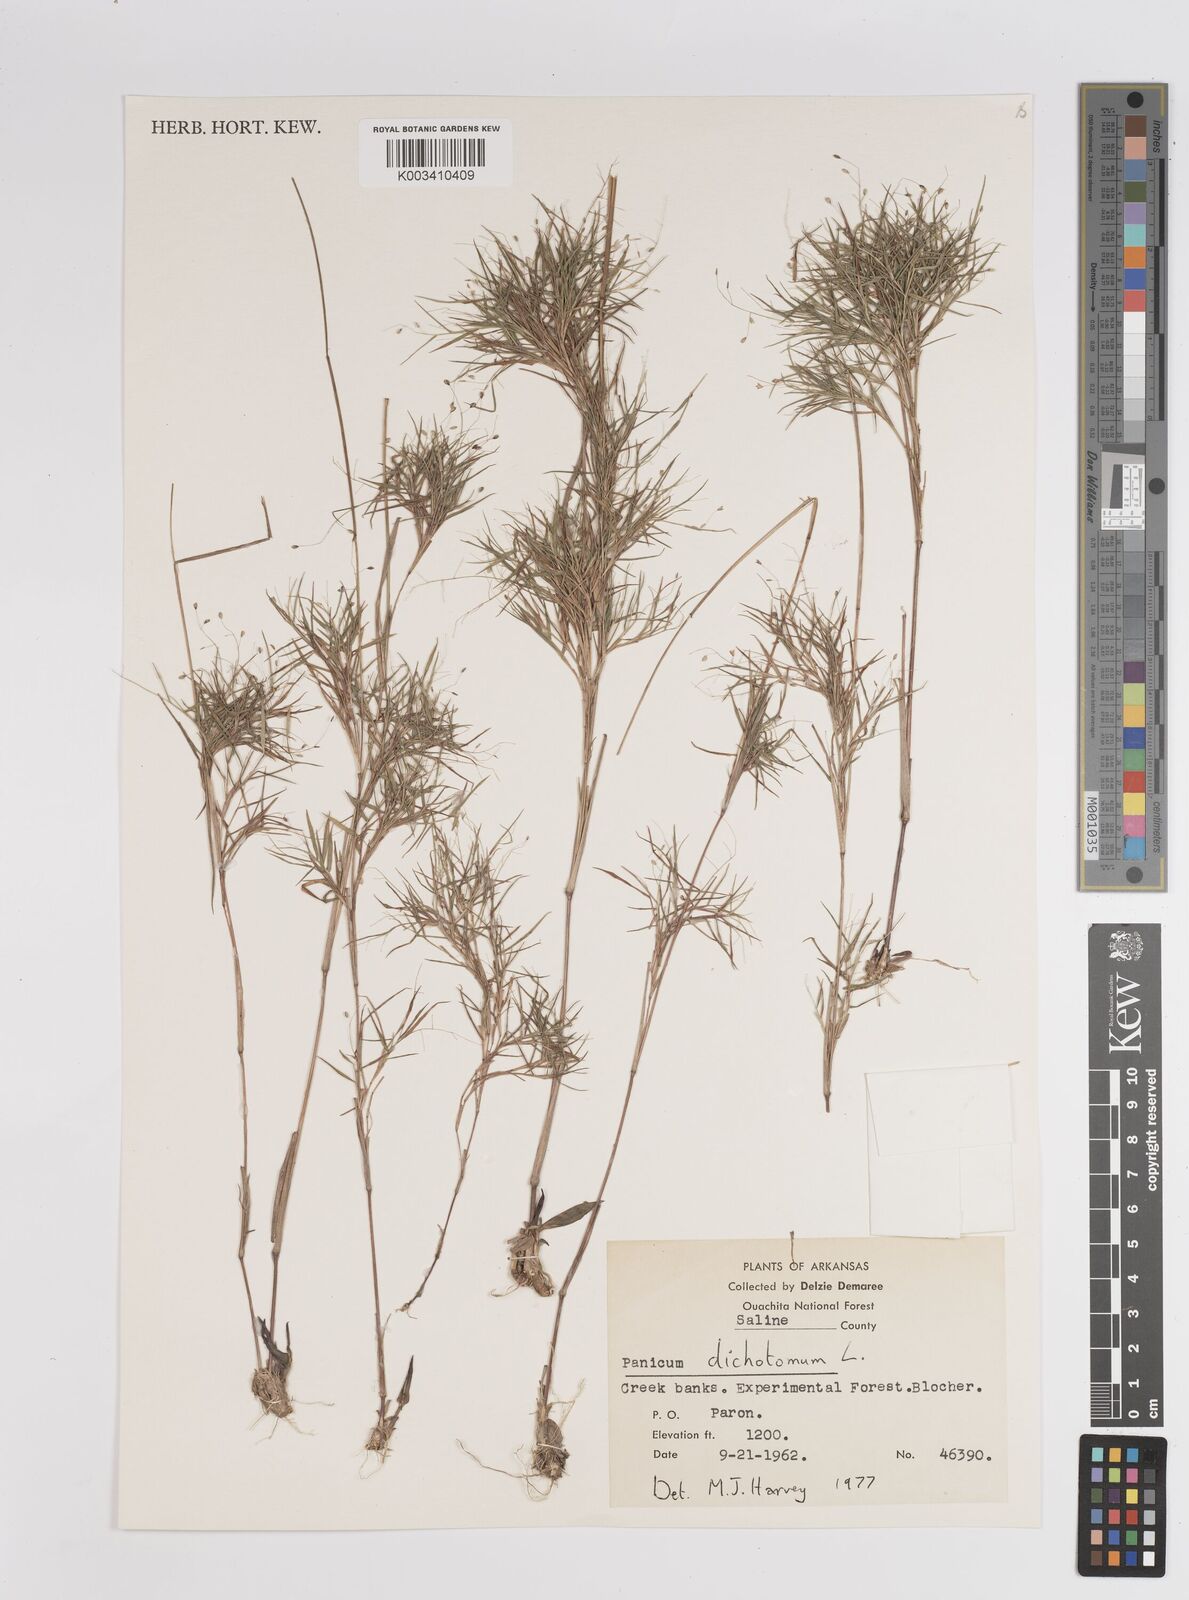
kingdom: Plantae
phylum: Tracheophyta
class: Liliopsida
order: Poales
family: Poaceae
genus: Dichanthelium
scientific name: Dichanthelium dichotomum
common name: Cypress panicgrass
